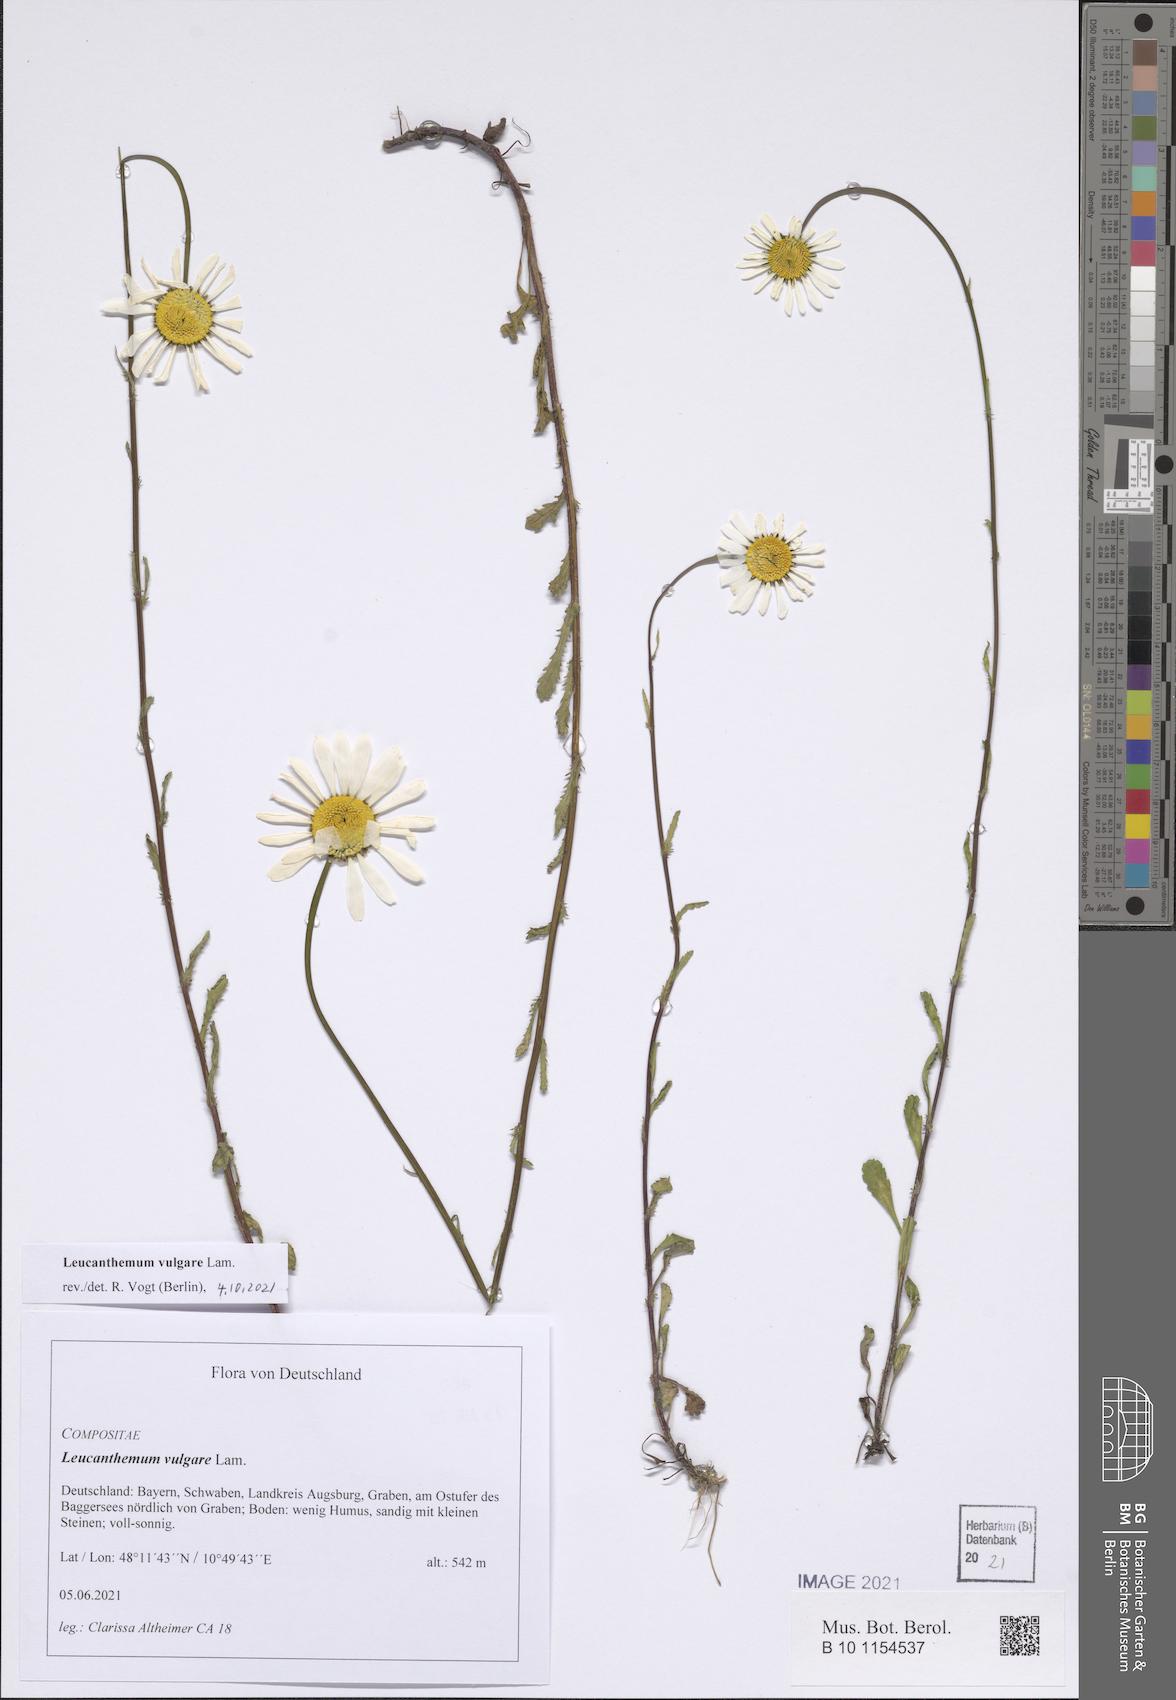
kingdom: Plantae
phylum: Tracheophyta
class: Magnoliopsida
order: Asterales
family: Asteraceae
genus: Leucanthemum
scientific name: Leucanthemum vulgare
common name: Oxeye daisy
